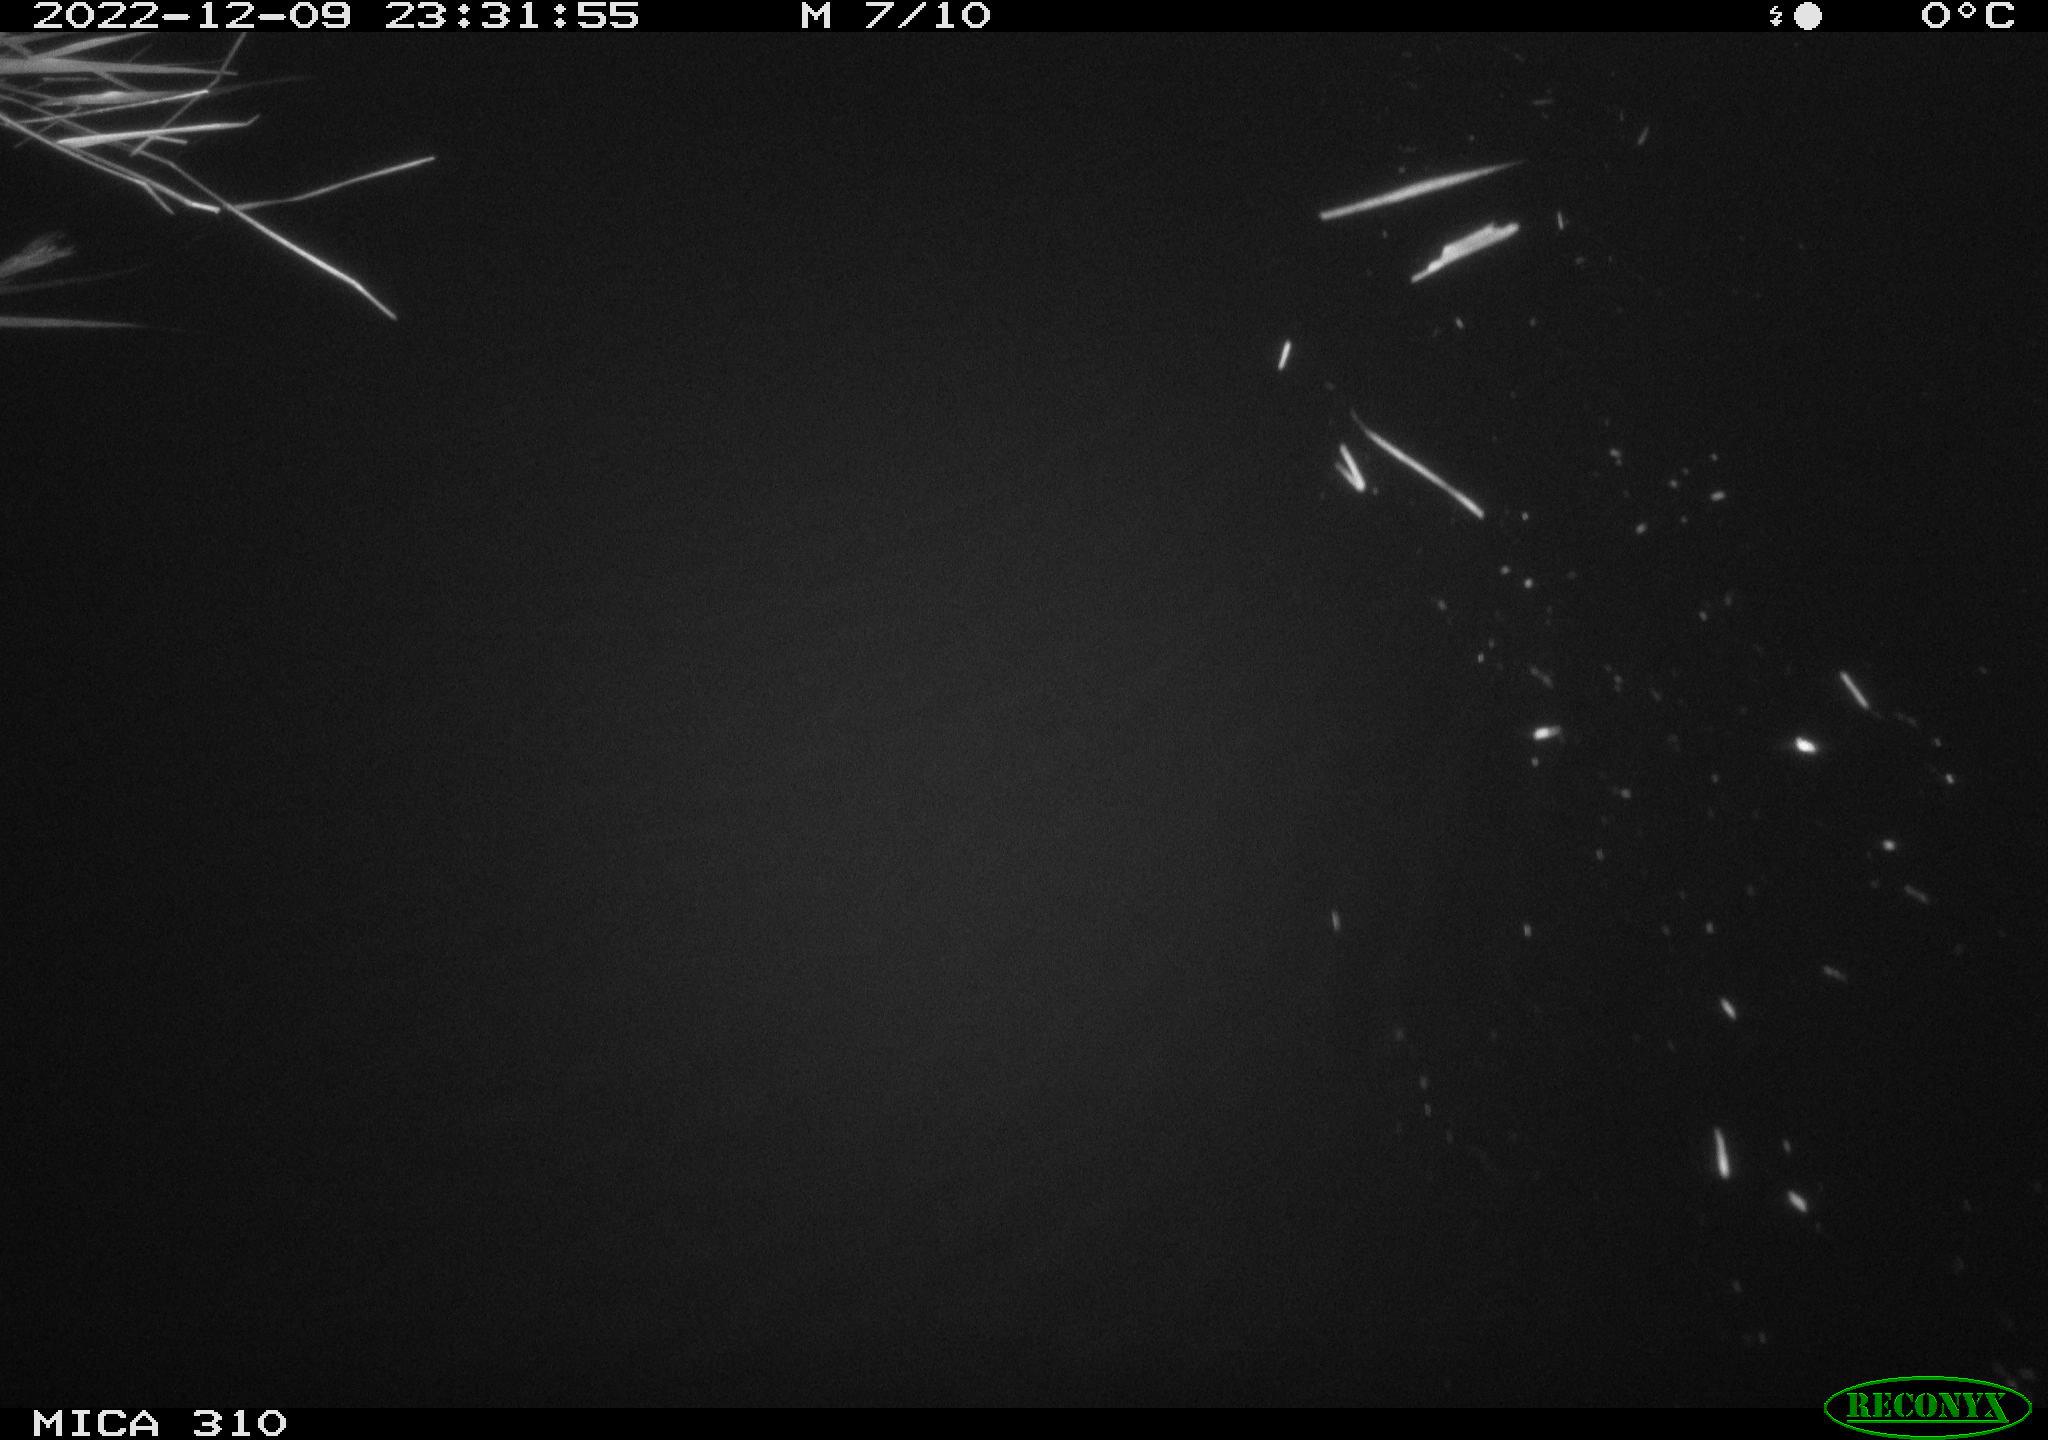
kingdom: Animalia
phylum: Chordata
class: Mammalia
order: Rodentia
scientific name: Rodentia
